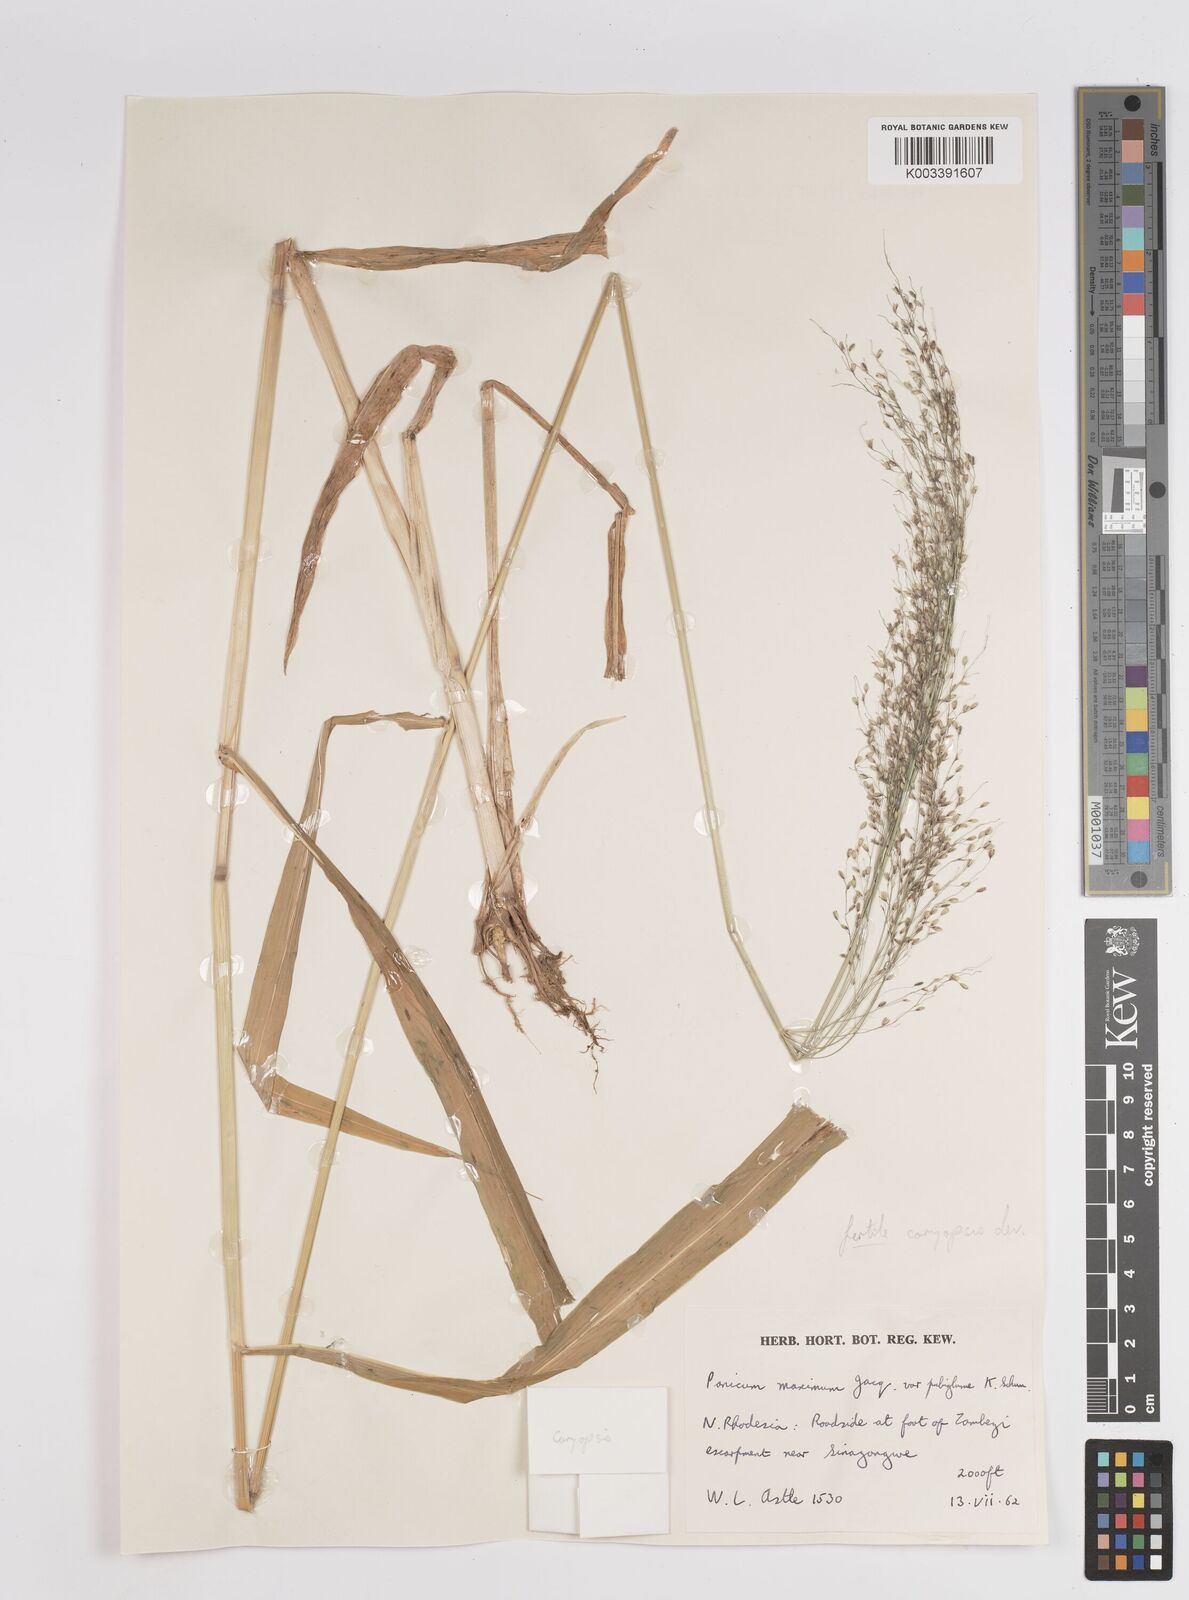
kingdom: Plantae
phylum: Tracheophyta
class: Liliopsida
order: Poales
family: Poaceae
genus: Megathyrsus
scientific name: Megathyrsus maximus
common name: Guineagrass
